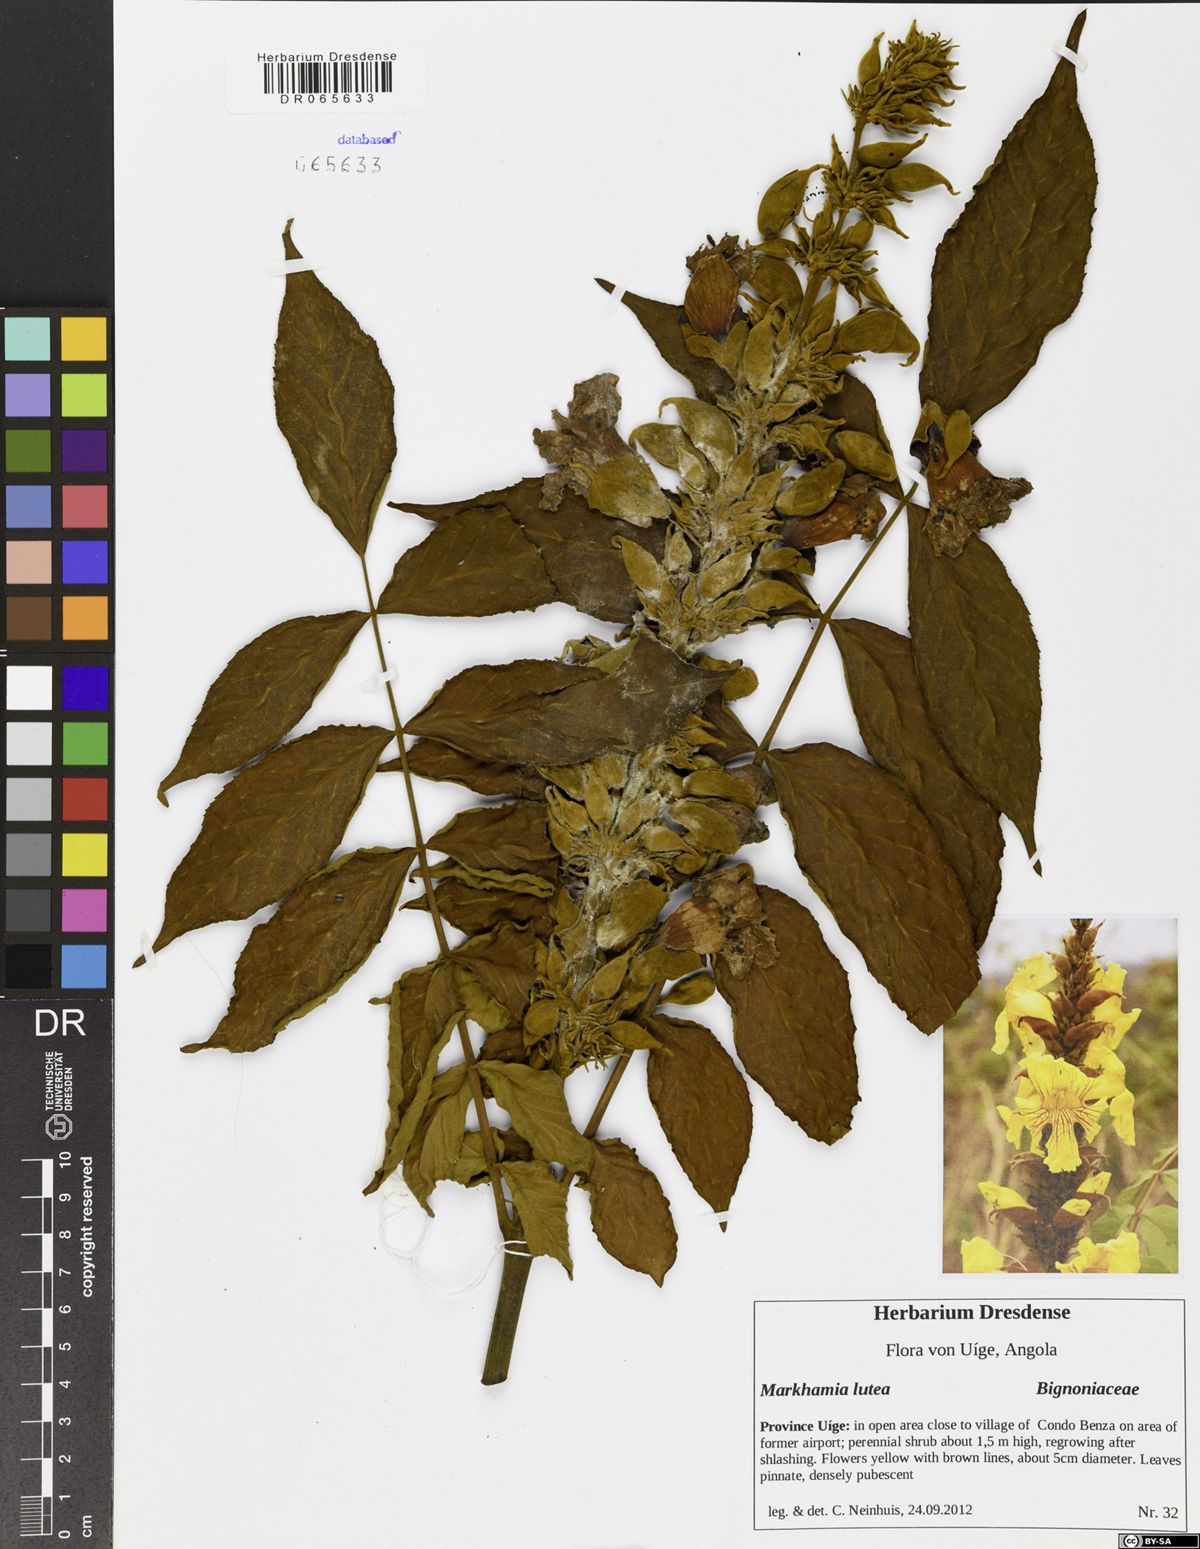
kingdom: Plantae
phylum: Tracheophyta
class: Magnoliopsida
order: Lamiales
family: Bignoniaceae
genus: Markhamia
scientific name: Markhamia lutea
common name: Siala
